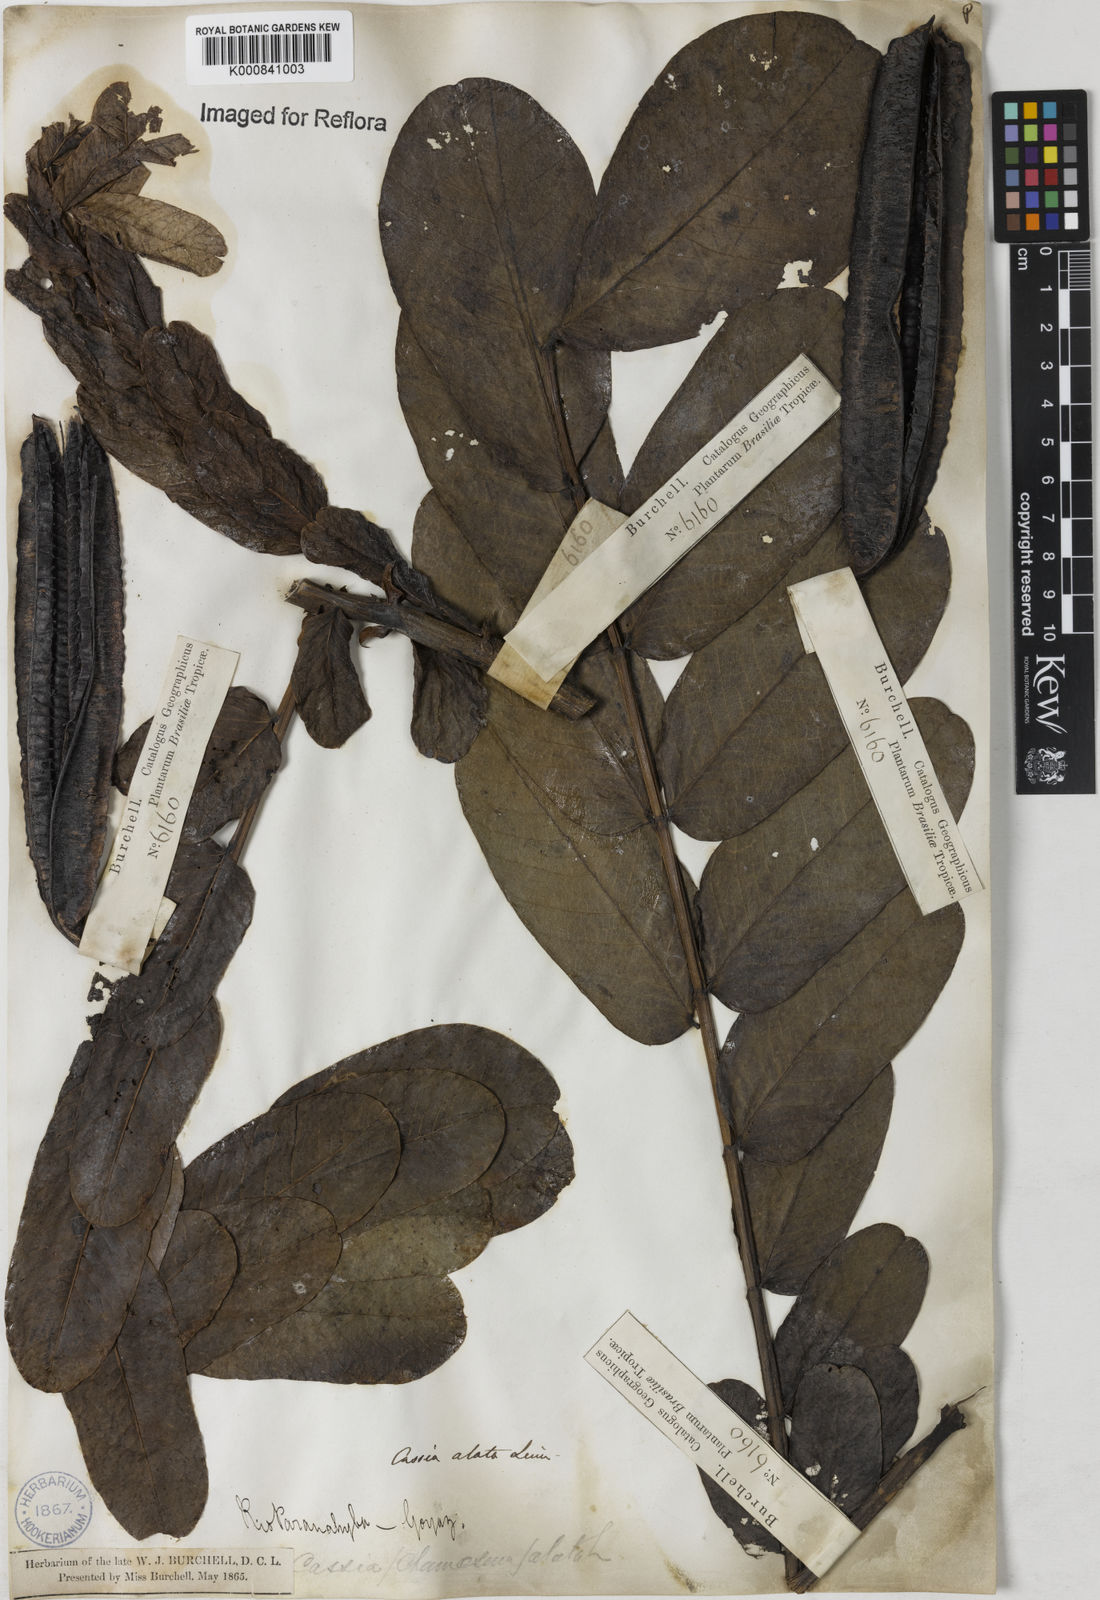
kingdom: Plantae
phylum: Tracheophyta
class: Magnoliopsida
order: Fabales
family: Fabaceae
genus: Senna
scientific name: Senna alata
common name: Emperor's candlesticks
